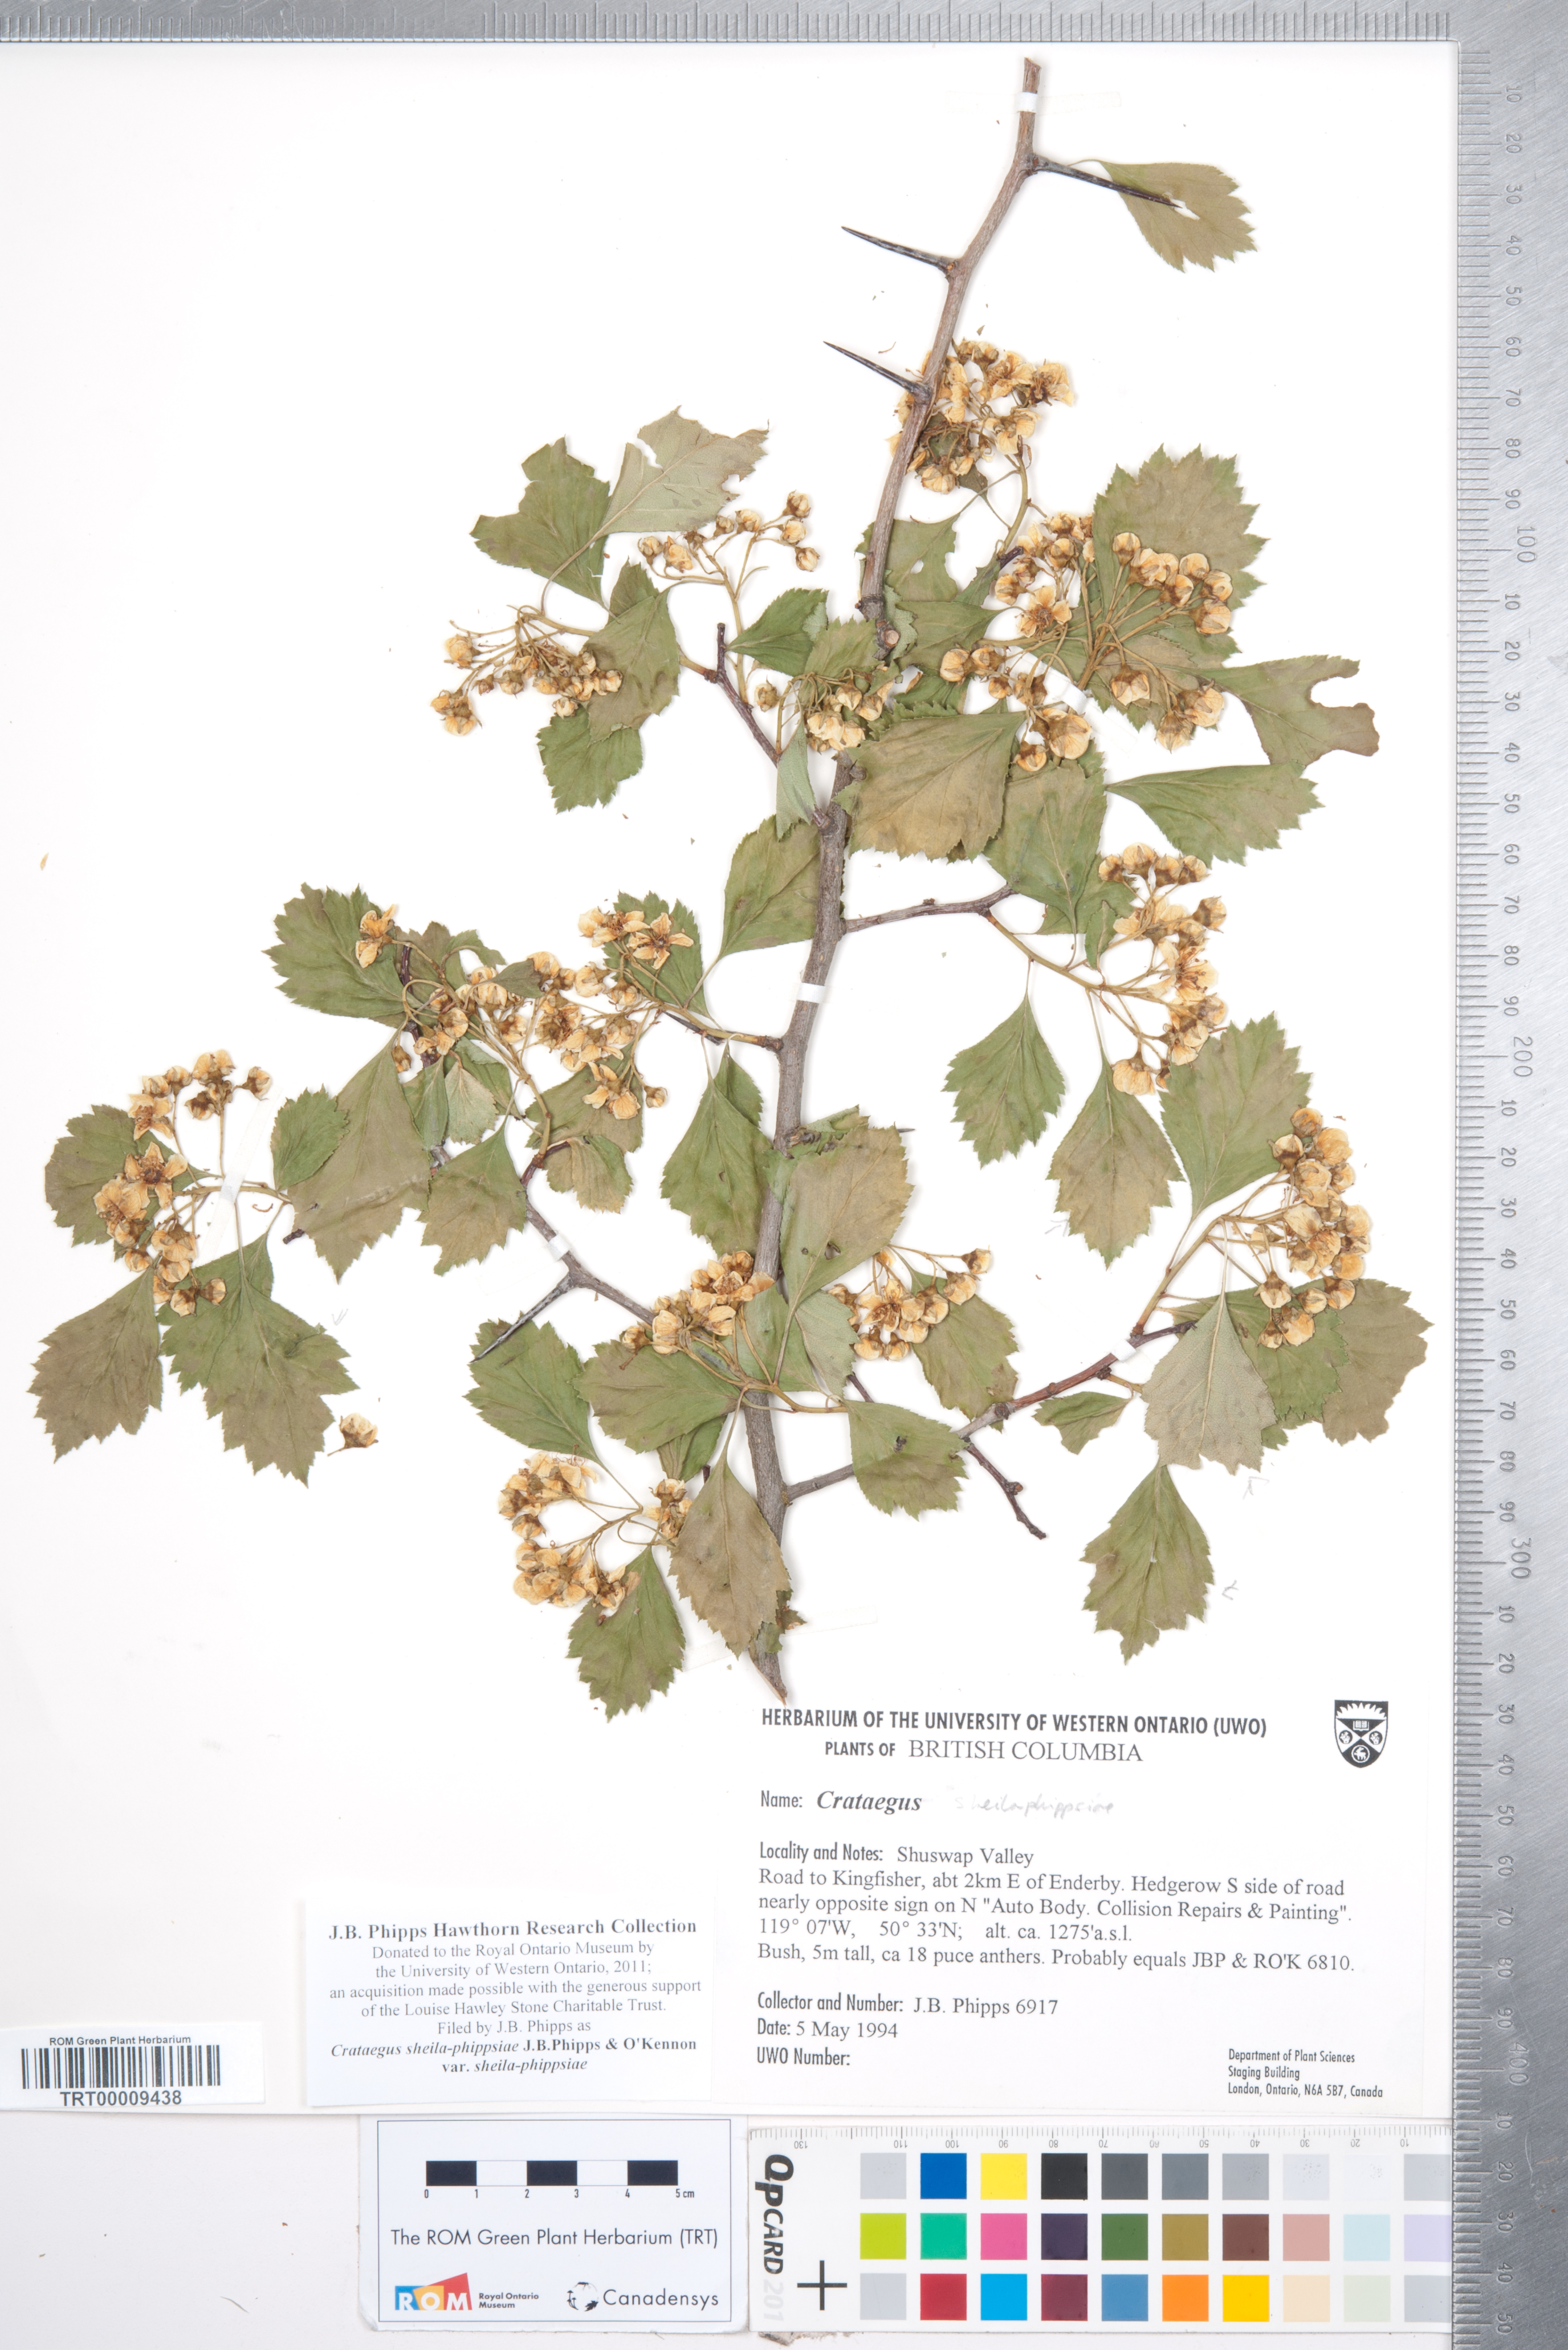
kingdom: Plantae
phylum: Tracheophyta
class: Magnoliopsida
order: Rosales
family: Rosaceae
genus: Crataegus
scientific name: Crataegus sheila-phippsiae
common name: Sheila phipps' hawthorn
